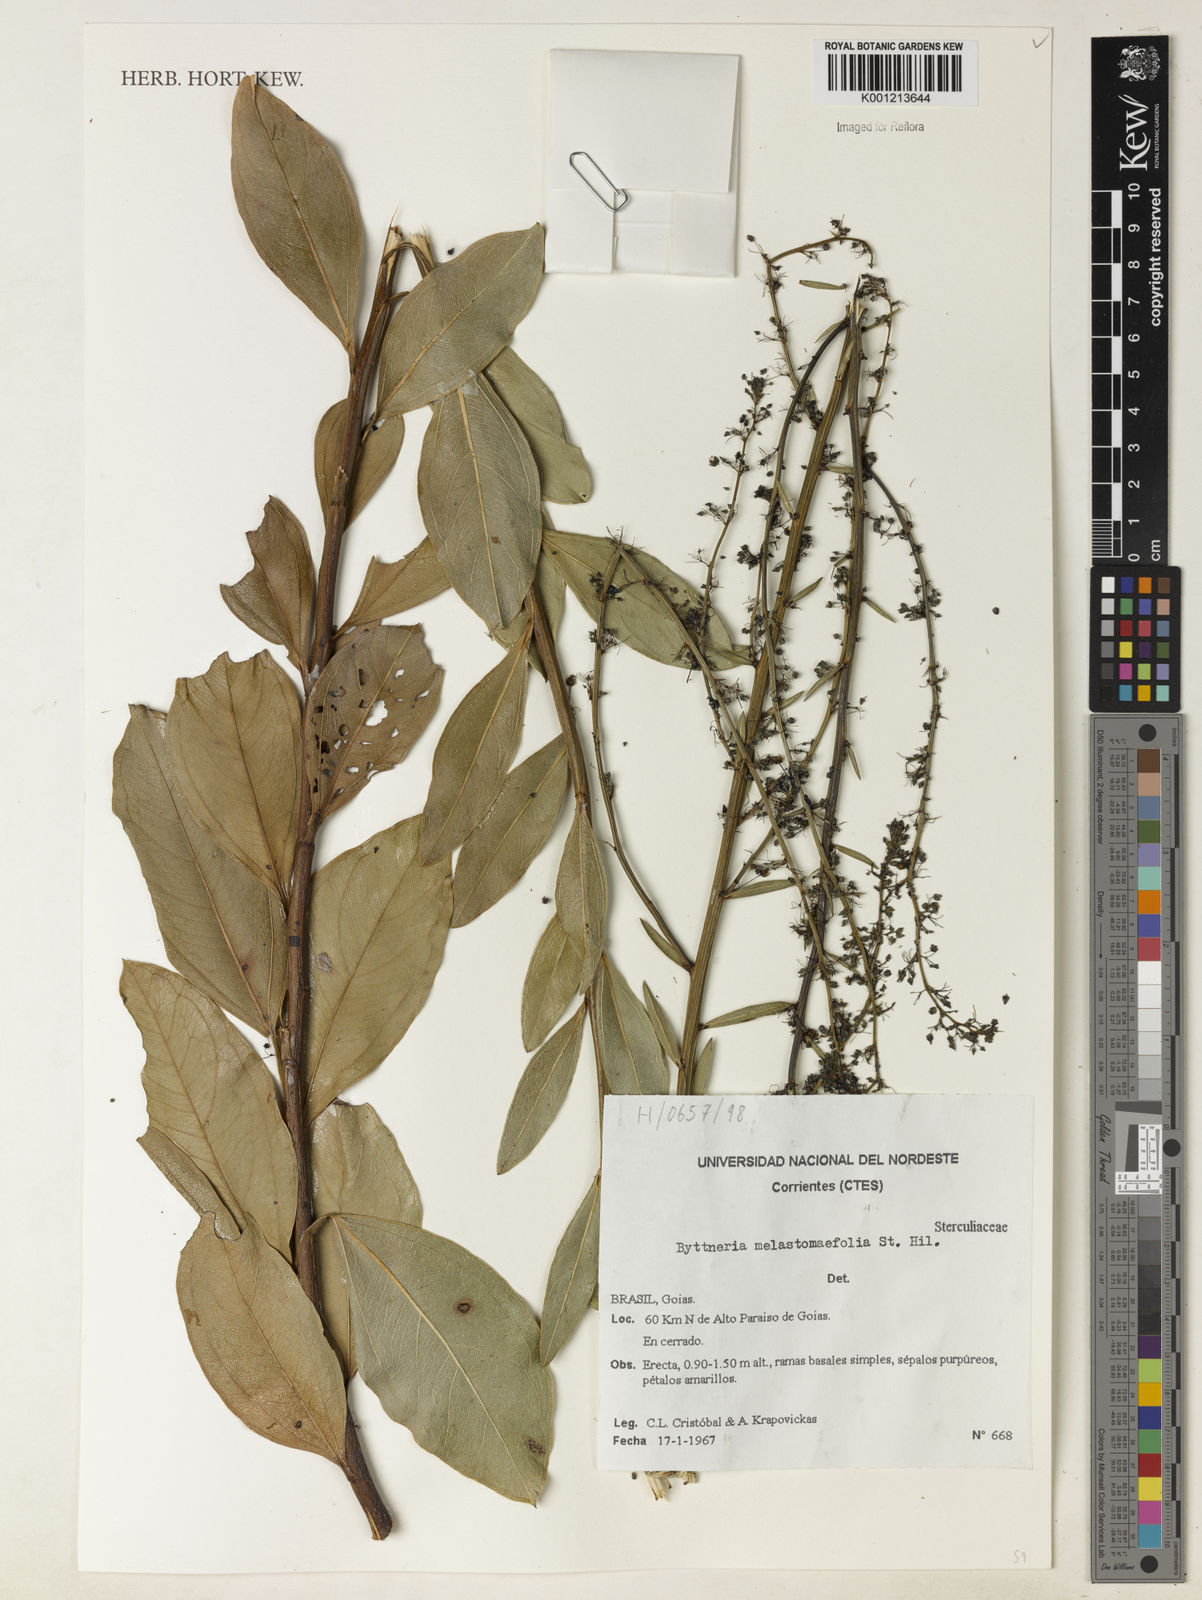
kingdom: Plantae
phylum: Tracheophyta
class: Magnoliopsida
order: Malvales
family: Malvaceae
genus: Byttneria
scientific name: Byttneria melastomifolia
